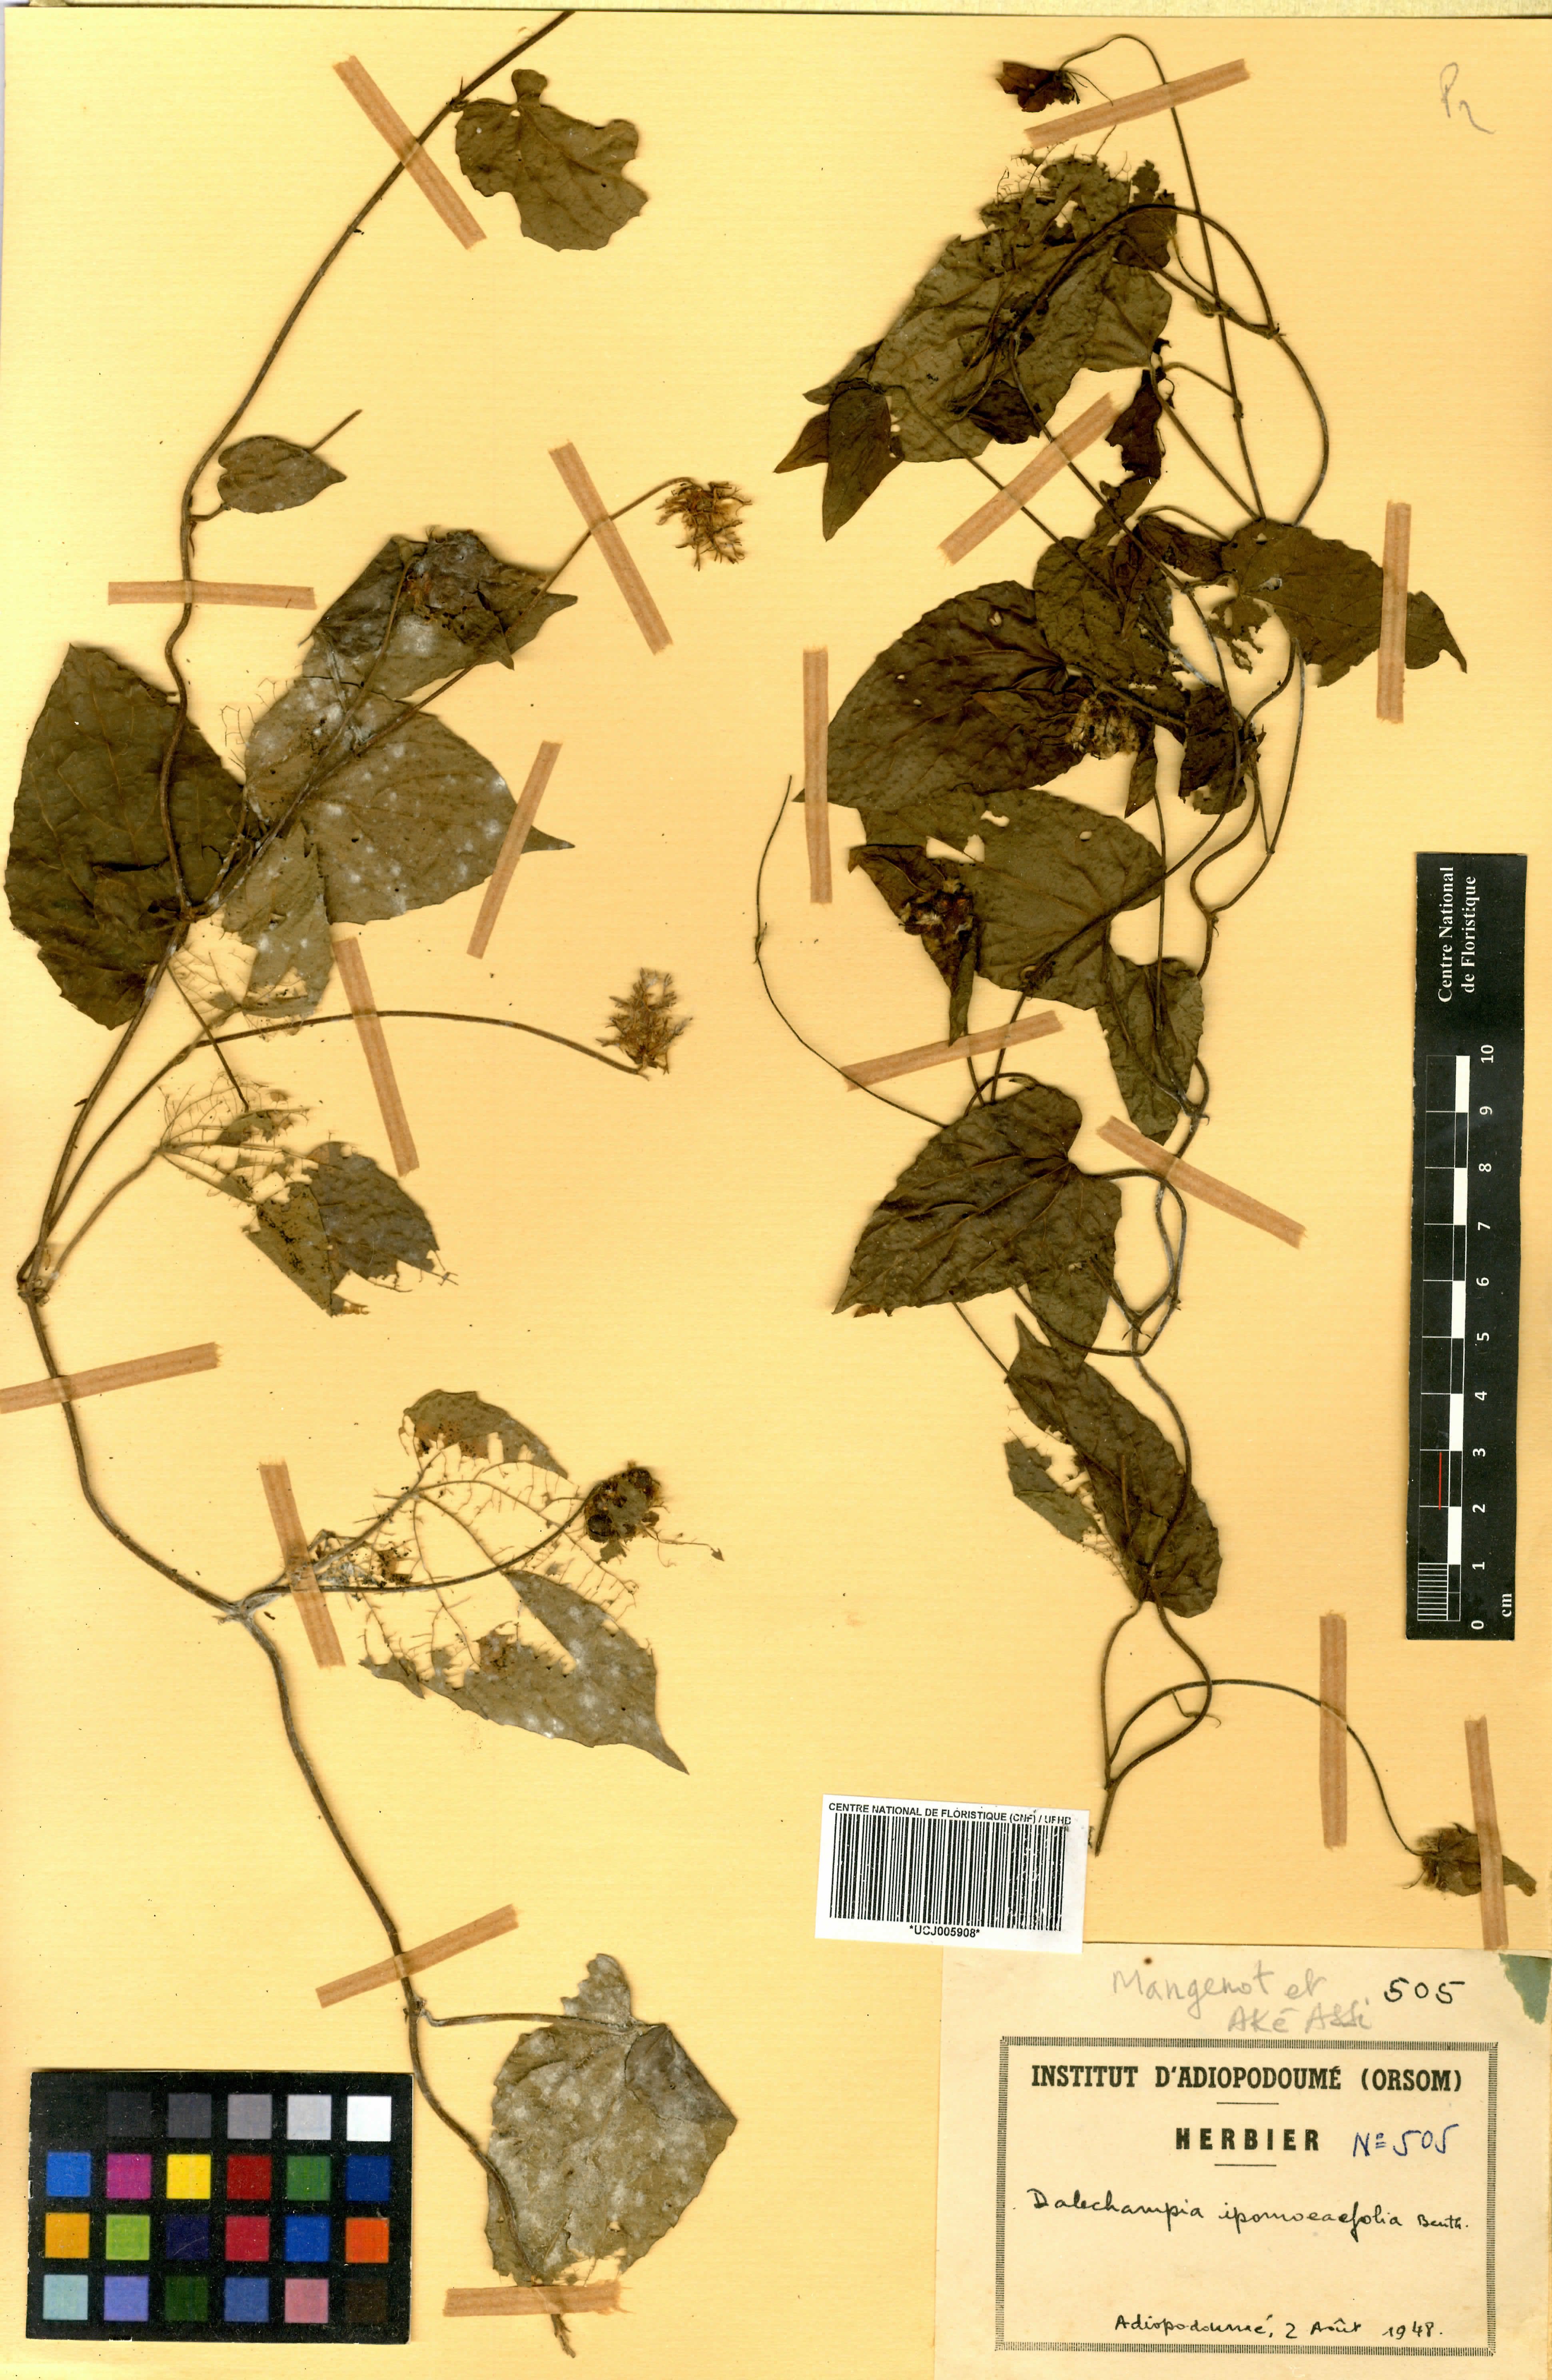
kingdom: Plantae
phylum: Tracheophyta
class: Magnoliopsida
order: Malpighiales
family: Euphorbiaceae
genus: Dalechampia
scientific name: Dalechampia ipomoeifolia
